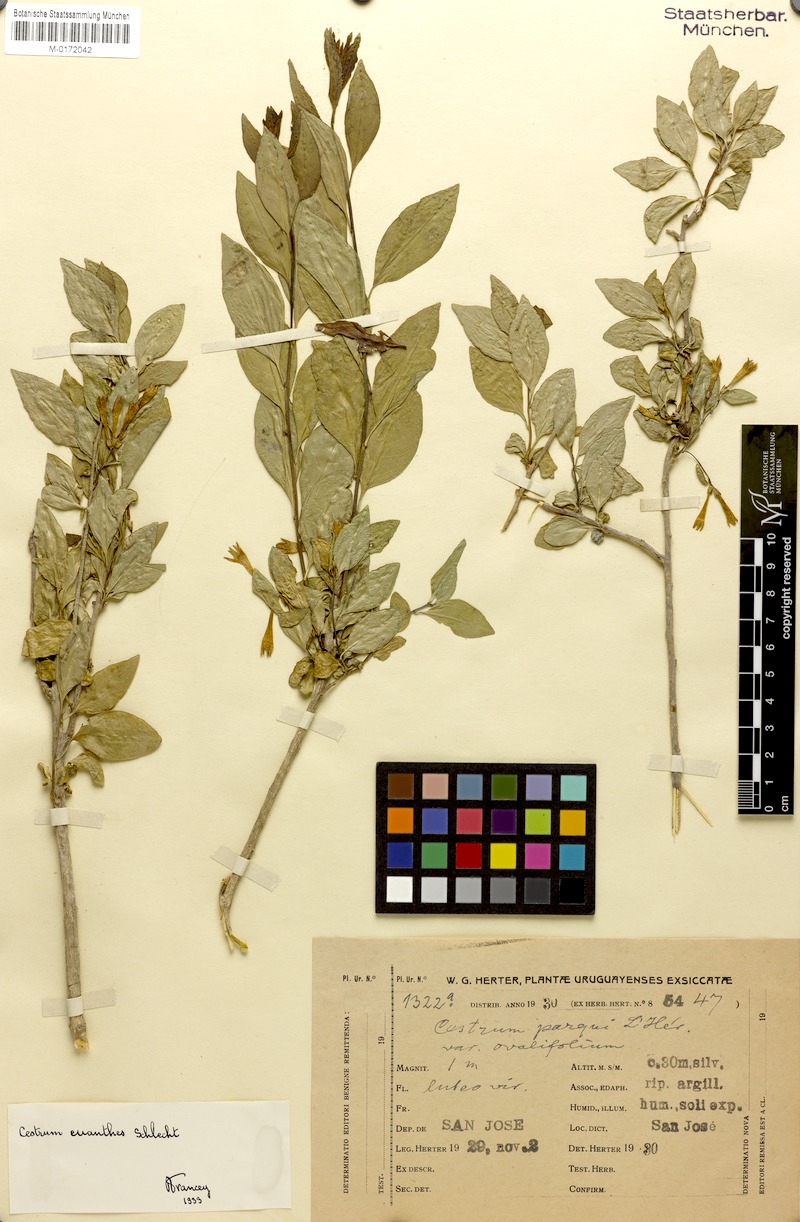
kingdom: Plantae
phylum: Tracheophyta
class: Magnoliopsida
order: Solanales
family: Solanaceae
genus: Cestrum
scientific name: Cestrum euanthes
